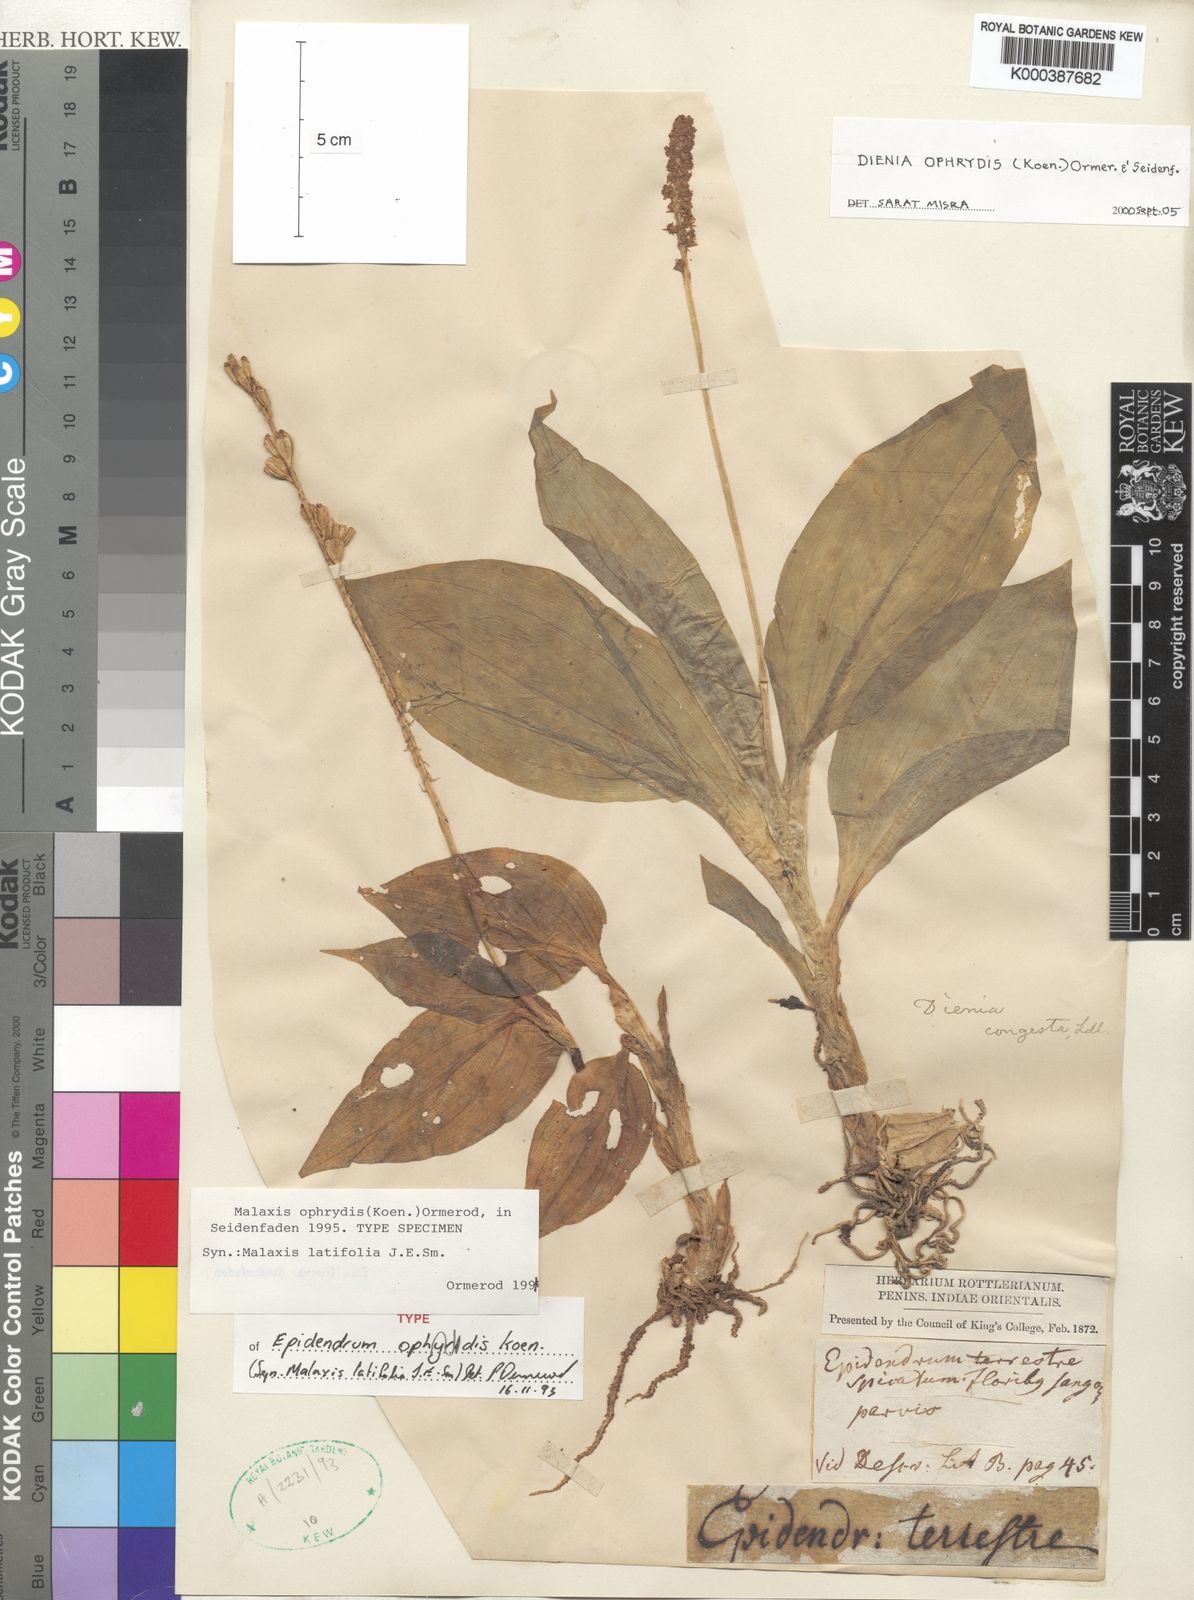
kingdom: Plantae
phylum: Tracheophyta
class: Liliopsida
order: Asparagales
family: Orchidaceae
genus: Dienia
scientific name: Dienia ophrydis
